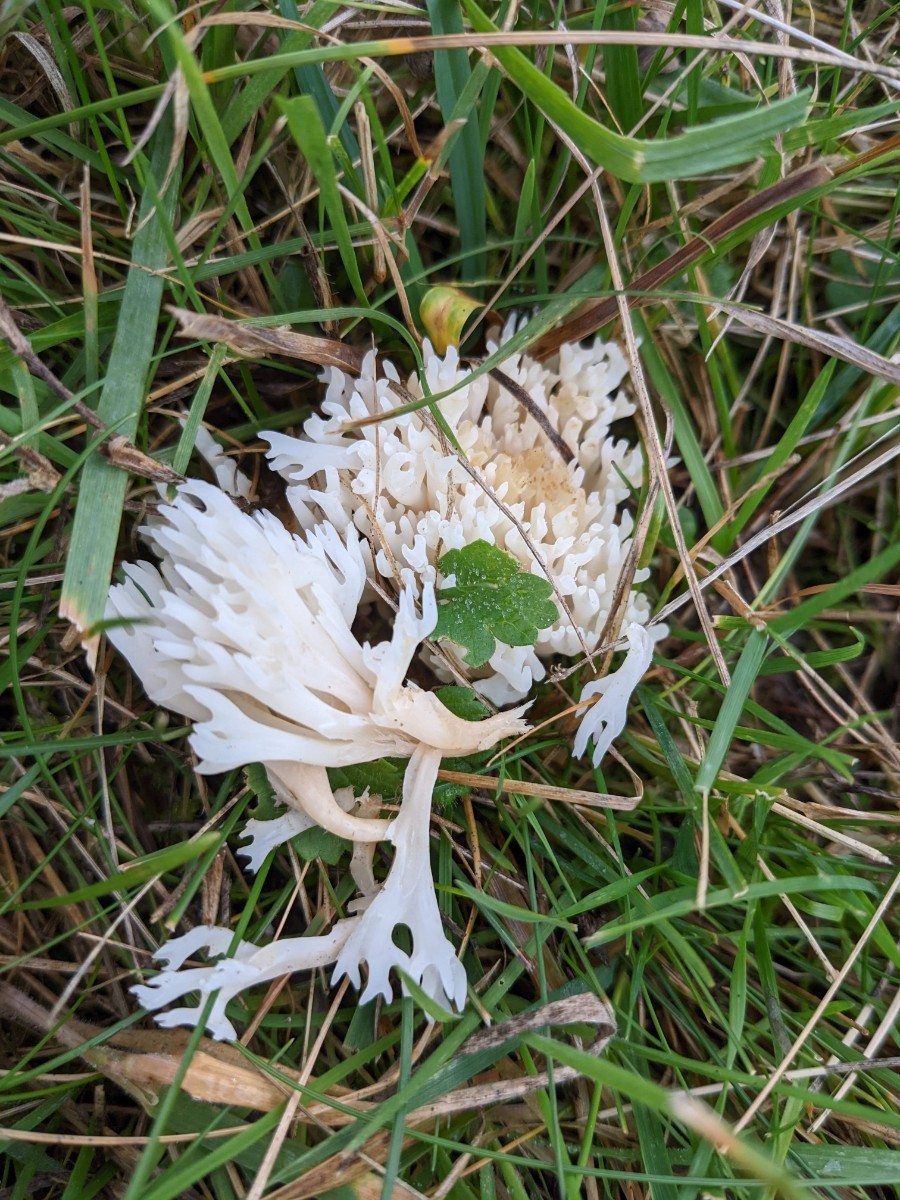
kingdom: Fungi
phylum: Basidiomycota
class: Agaricomycetes
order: Agaricales
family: Clavariaceae
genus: Ramariopsis
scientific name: Ramariopsis
